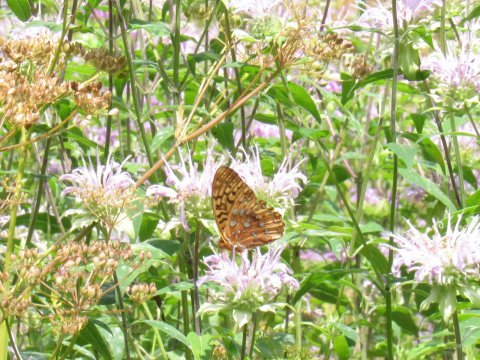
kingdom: Animalia
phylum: Arthropoda
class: Insecta
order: Lepidoptera
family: Nymphalidae
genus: Speyeria
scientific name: Speyeria cybele
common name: Great Spangled Fritillary
